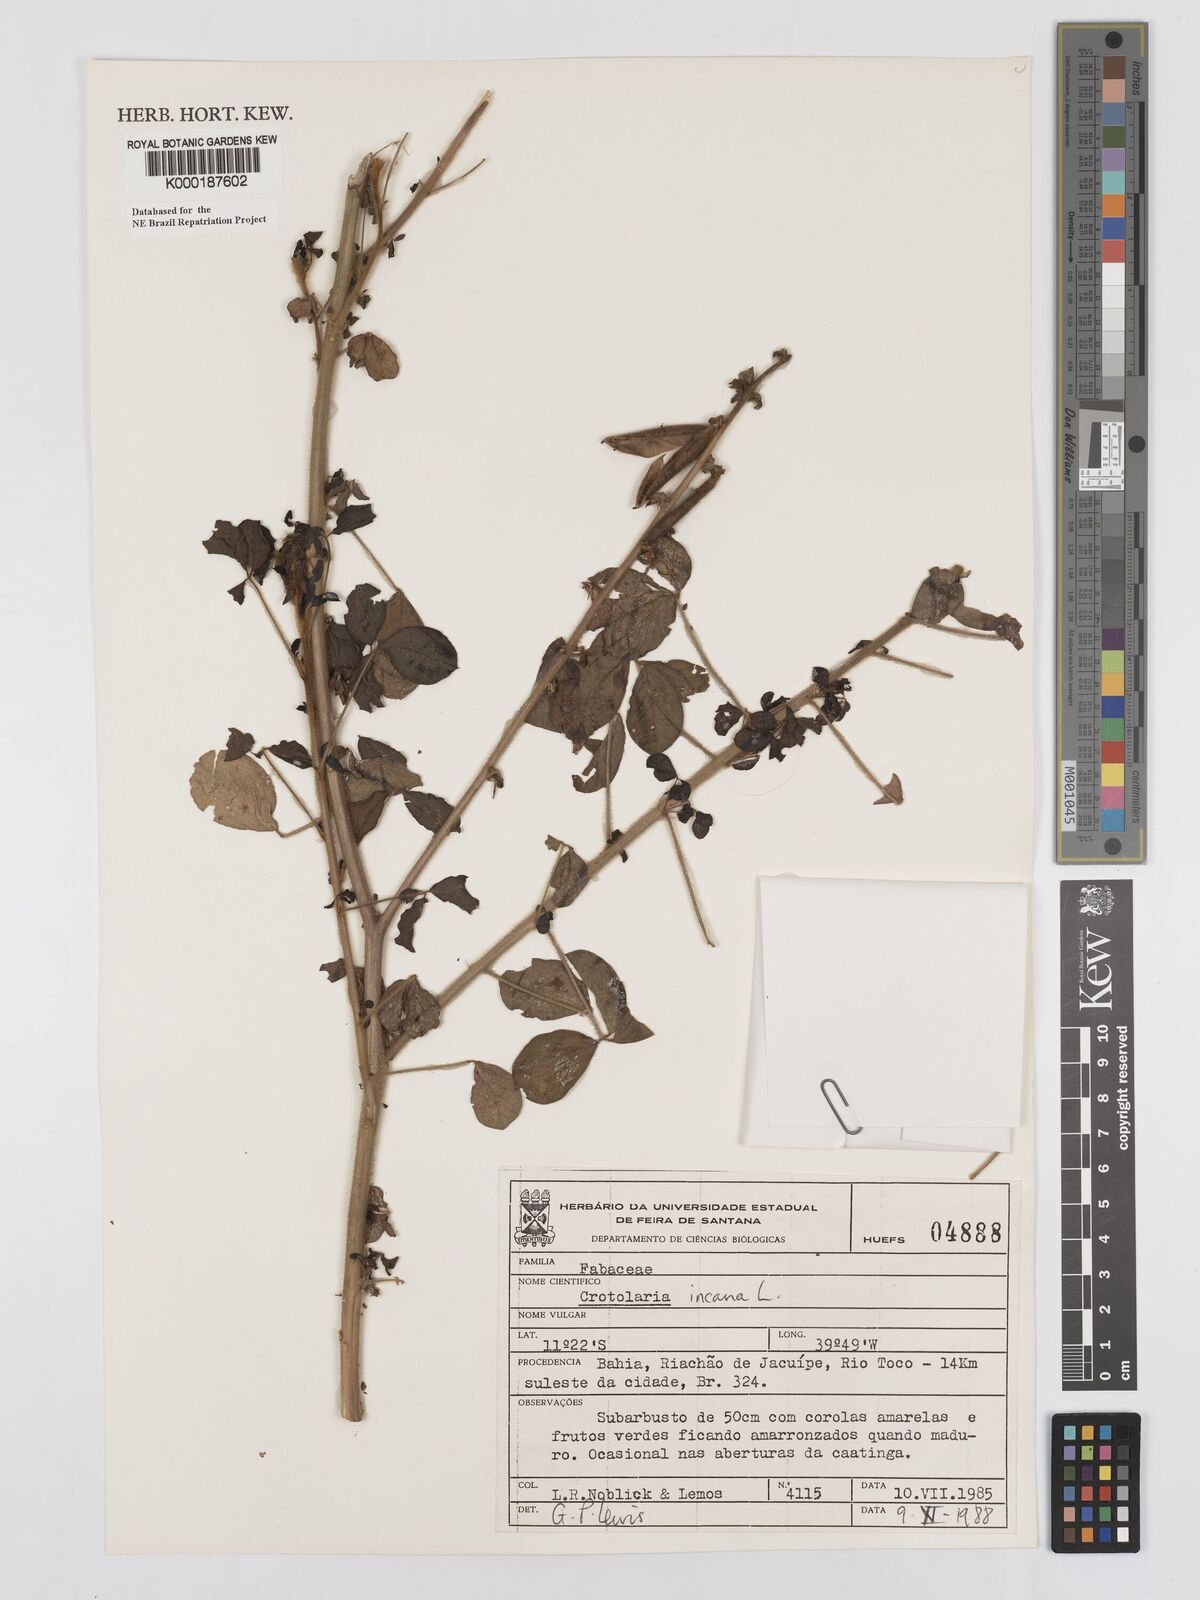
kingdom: Plantae
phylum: Tracheophyta
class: Magnoliopsida
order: Fabales
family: Fabaceae
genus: Crotalaria
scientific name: Crotalaria incana
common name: Shakeshake
